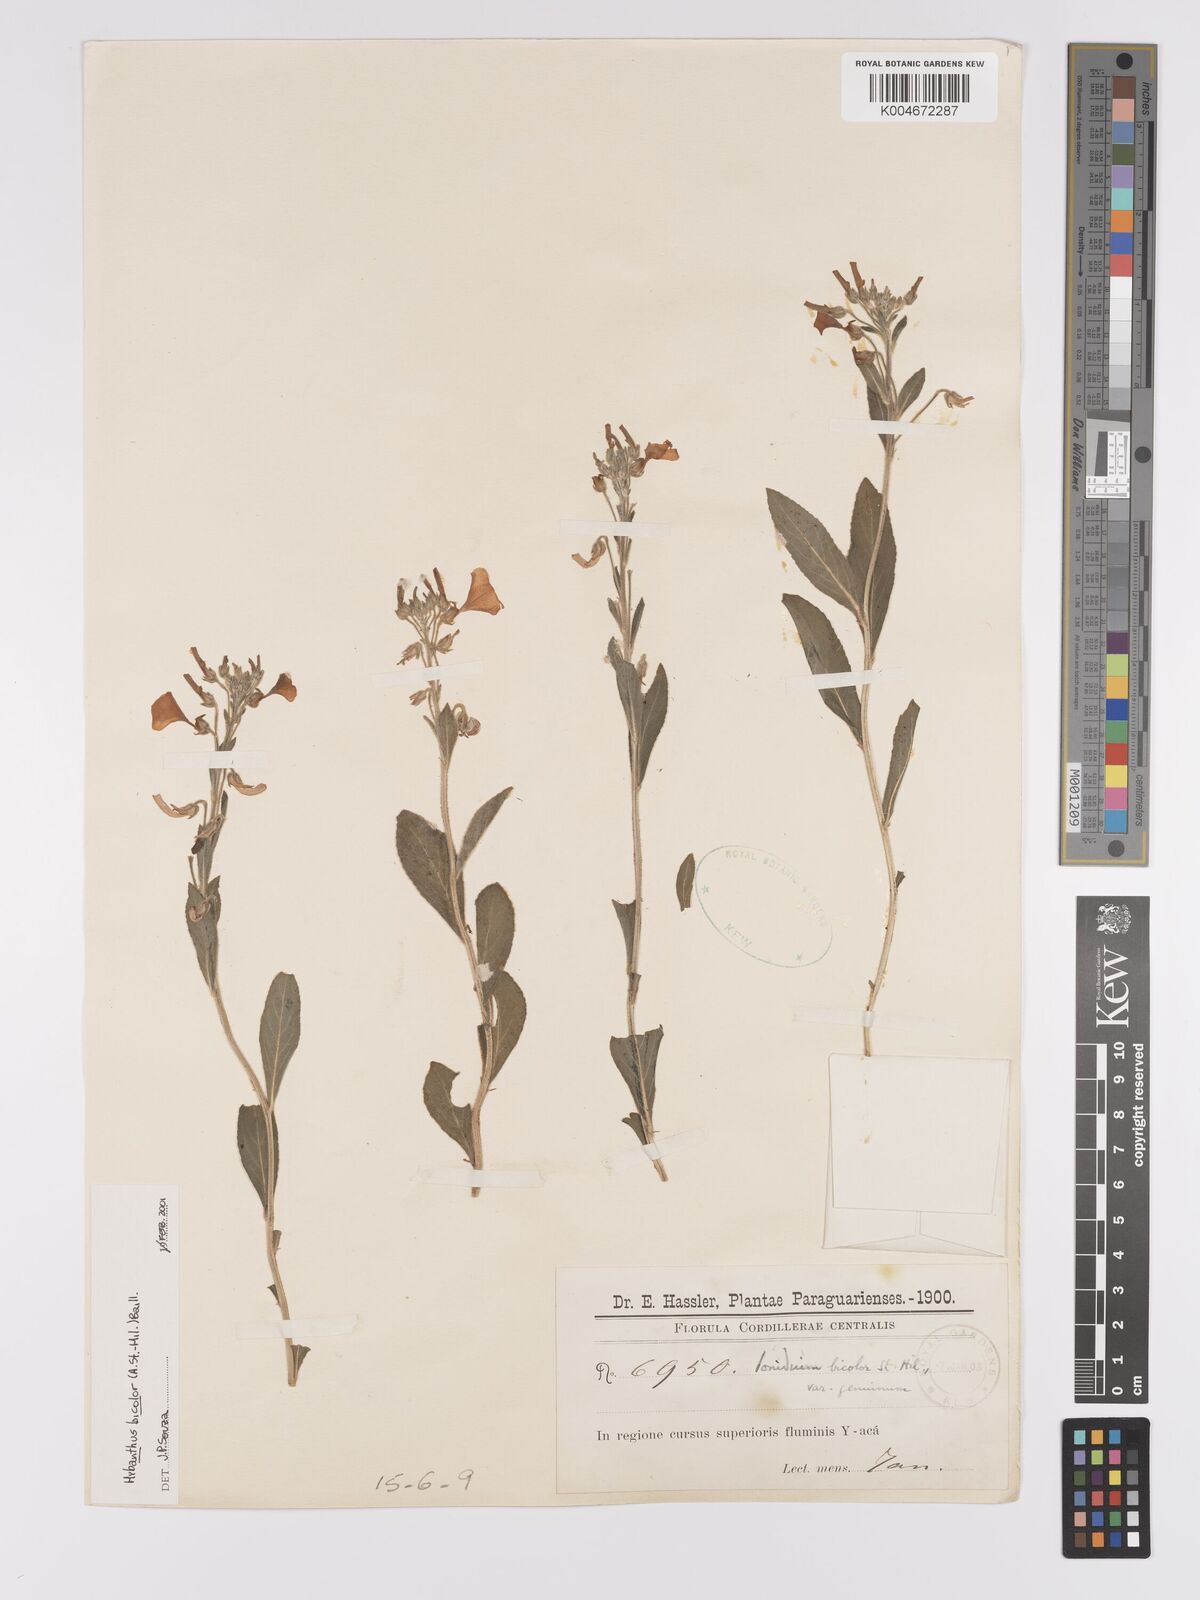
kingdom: Plantae
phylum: Tracheophyta
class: Magnoliopsida
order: Malpighiales
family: Violaceae
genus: Pombalia
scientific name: Pombalia bicolor
